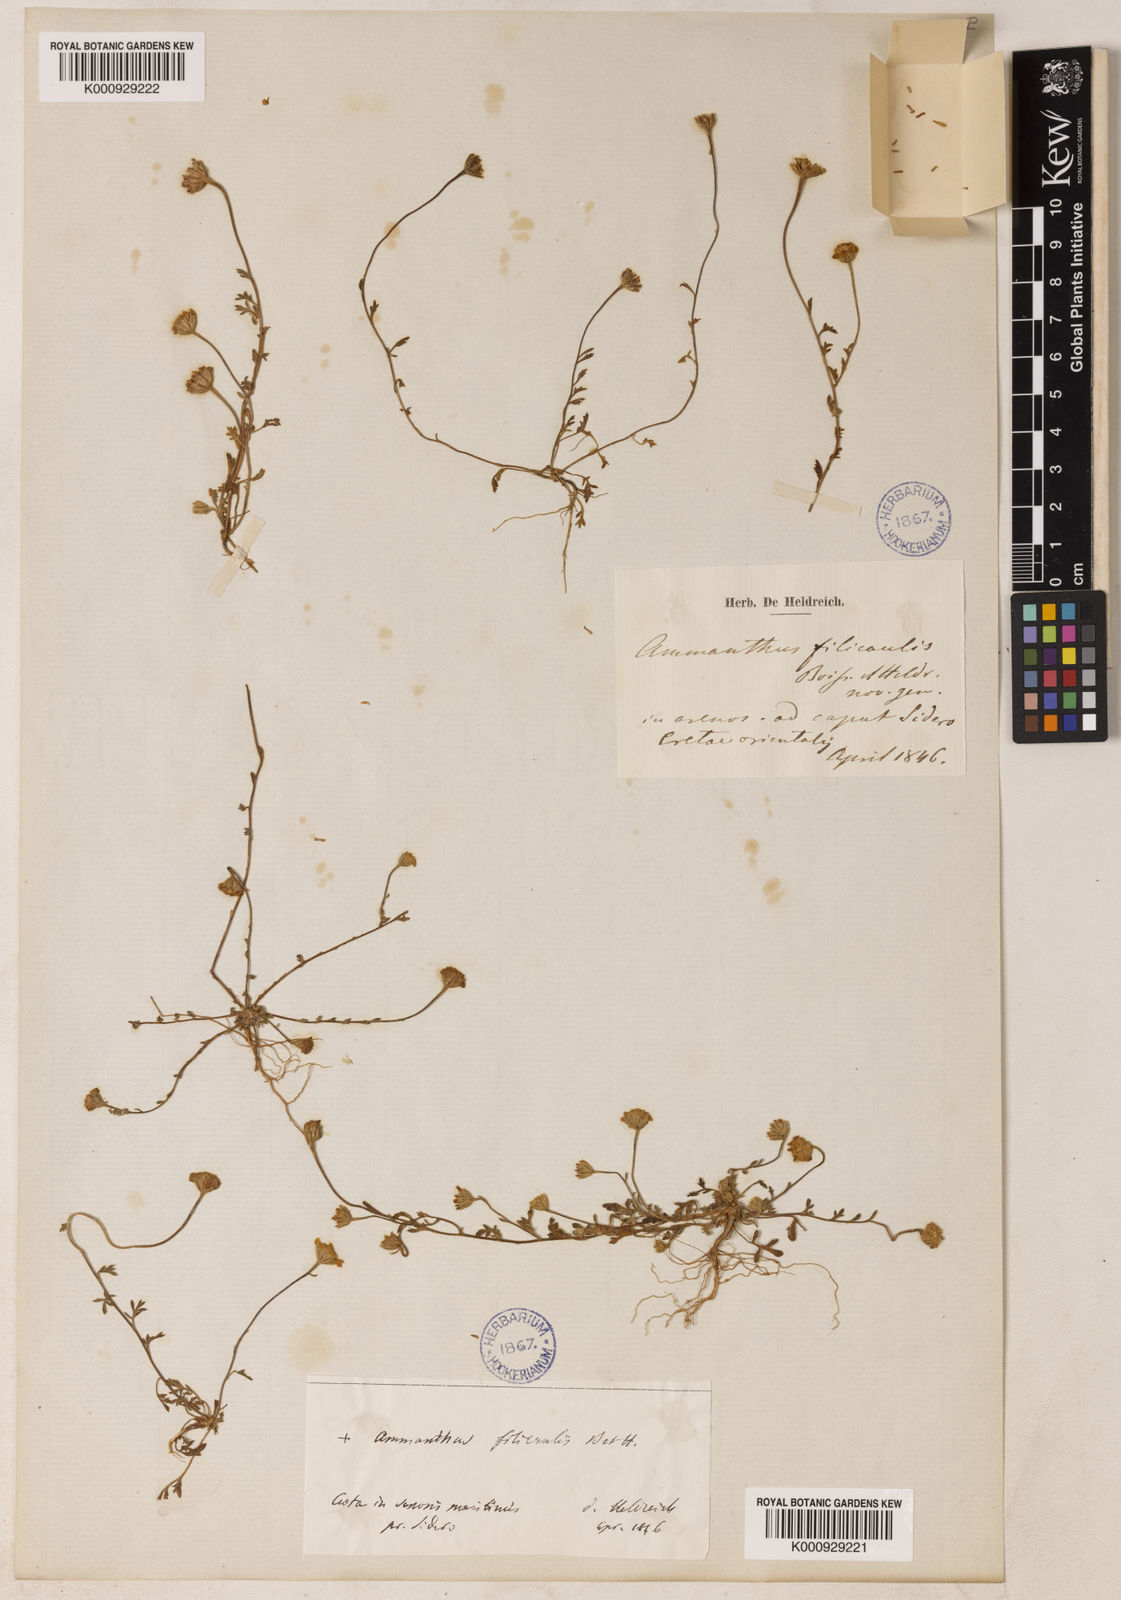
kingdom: Plantae
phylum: Tracheophyta
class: Magnoliopsida
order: Asterales
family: Asteraceae
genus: Anthemis
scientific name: Anthemis filicaulis
